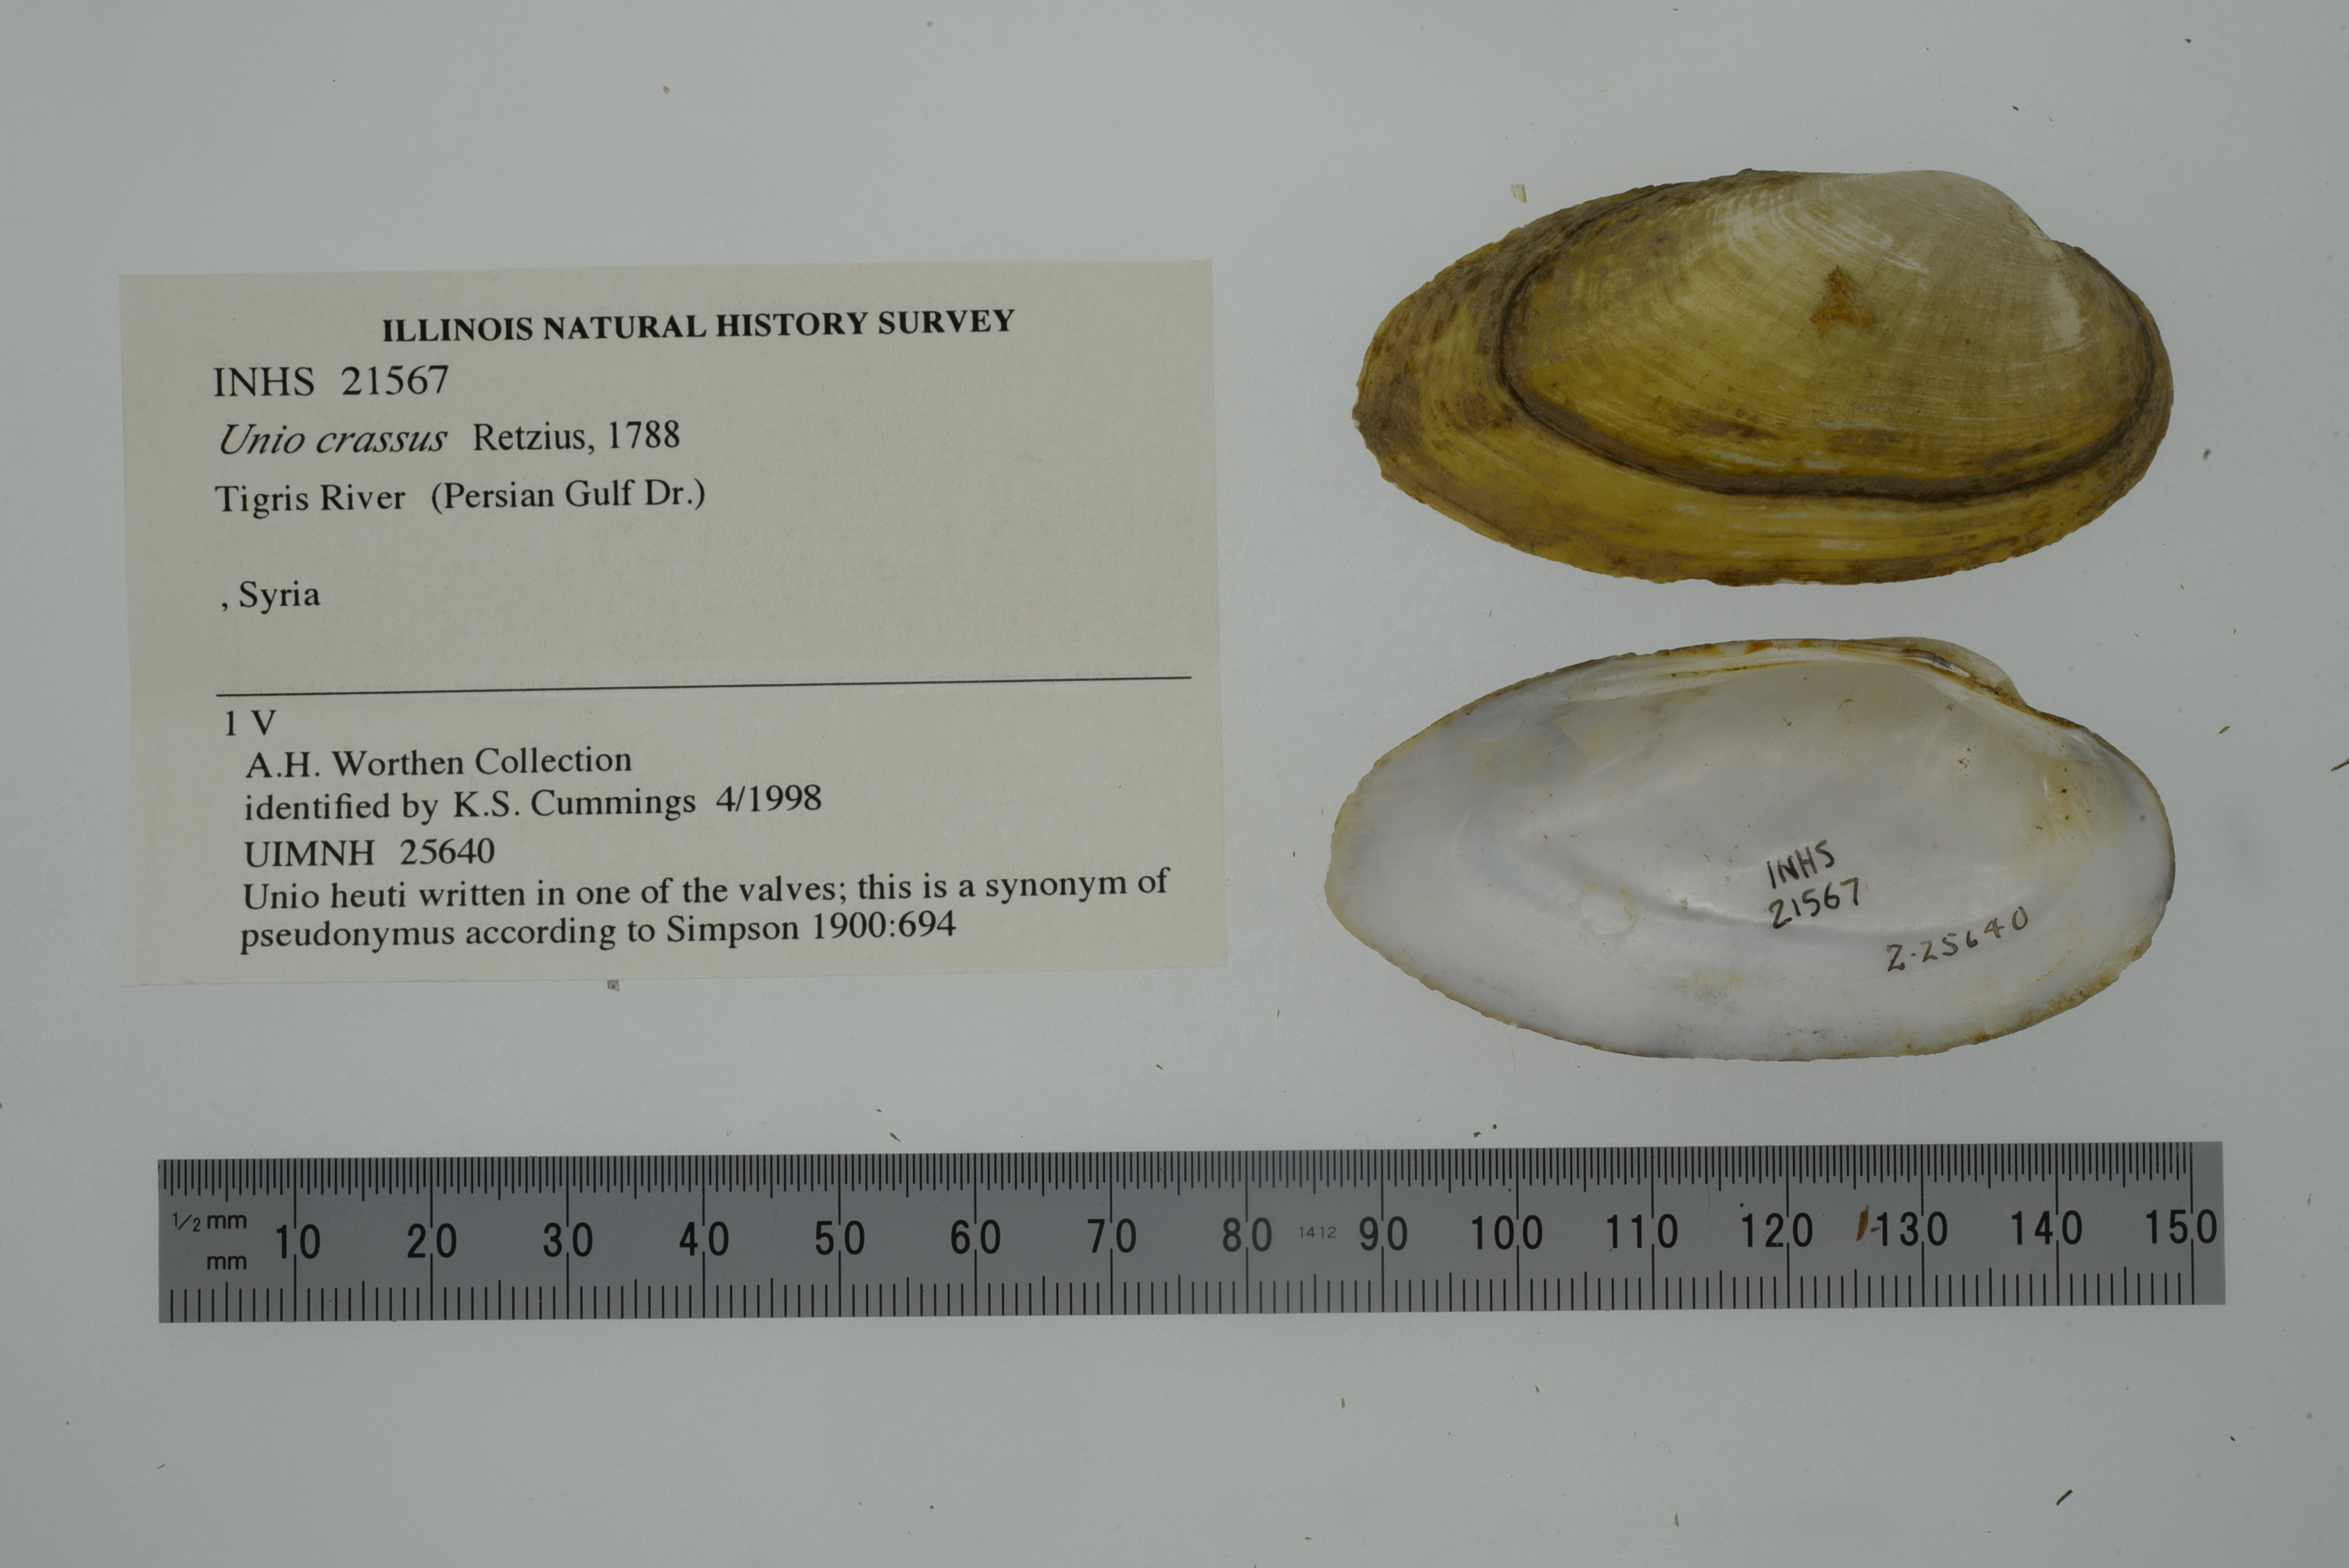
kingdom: Animalia
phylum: Mollusca
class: Bivalvia
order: Unionida
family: Unionidae
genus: Unio
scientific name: Unio tigridis
